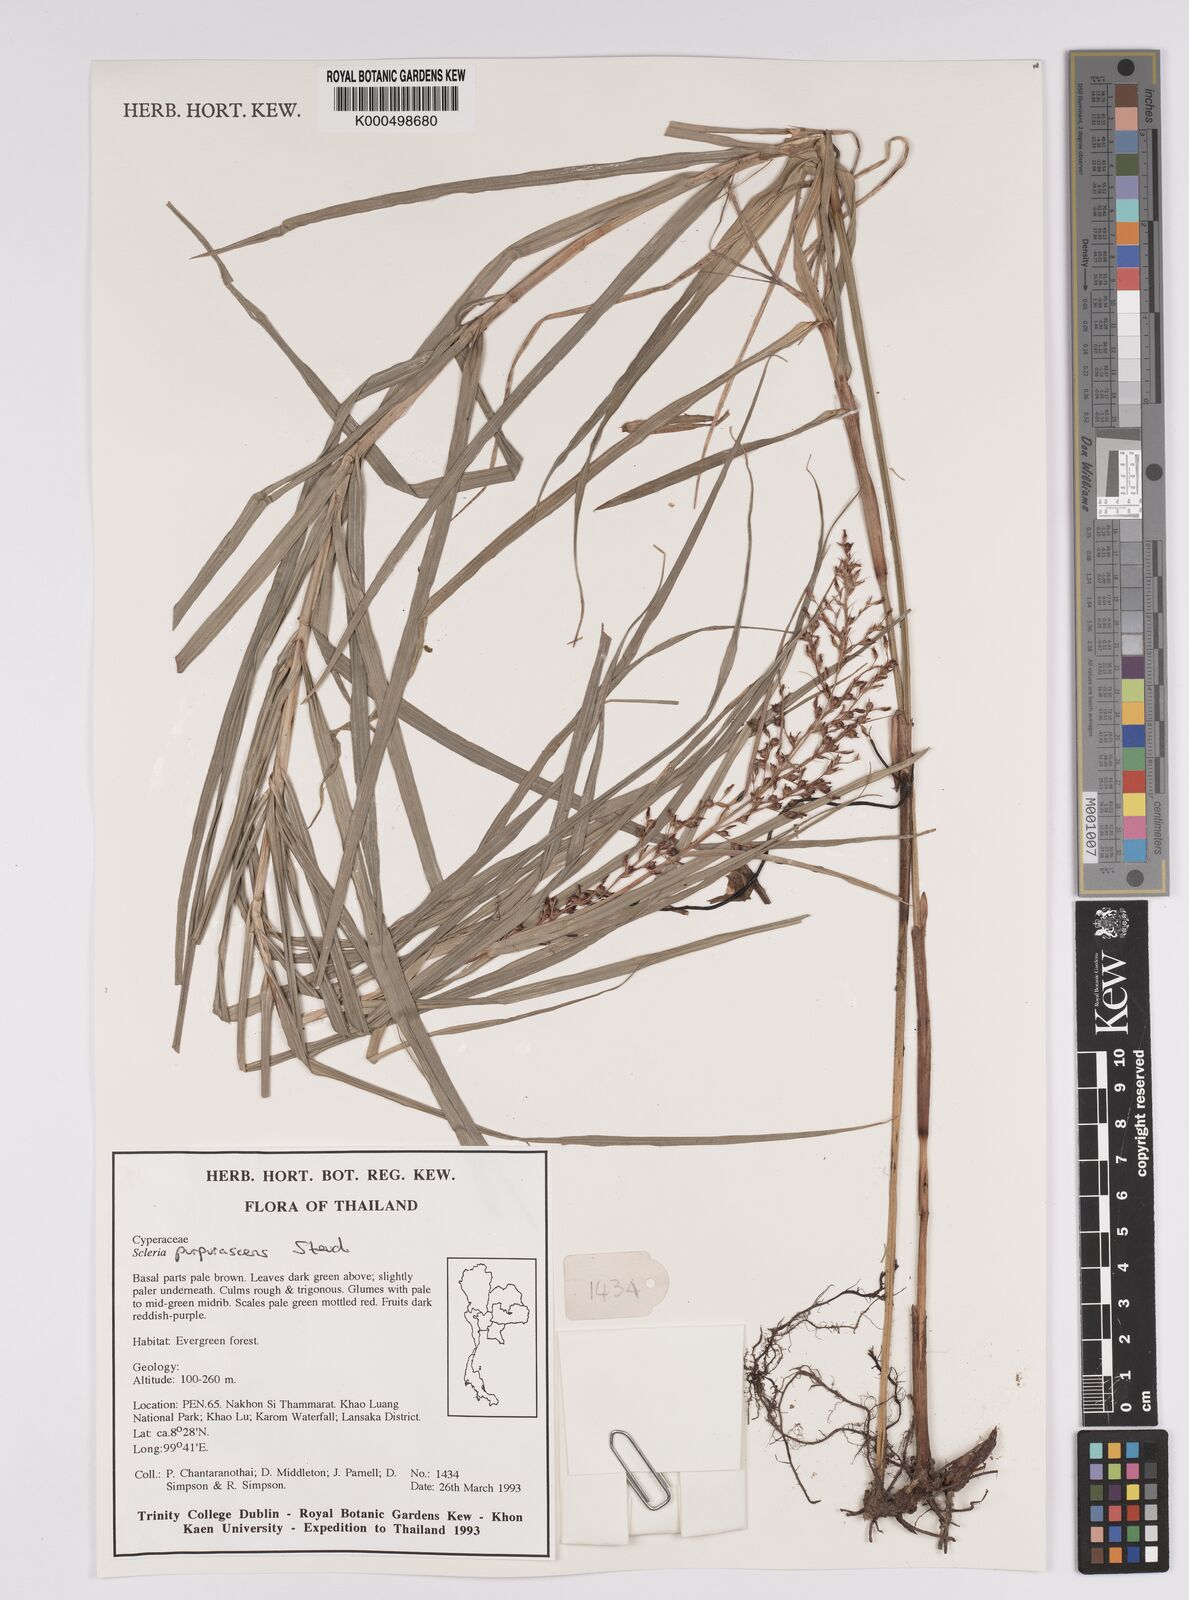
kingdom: Plantae
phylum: Tracheophyta
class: Liliopsida
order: Poales
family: Cyperaceae
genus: Scleria
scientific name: Scleria purpurascens
